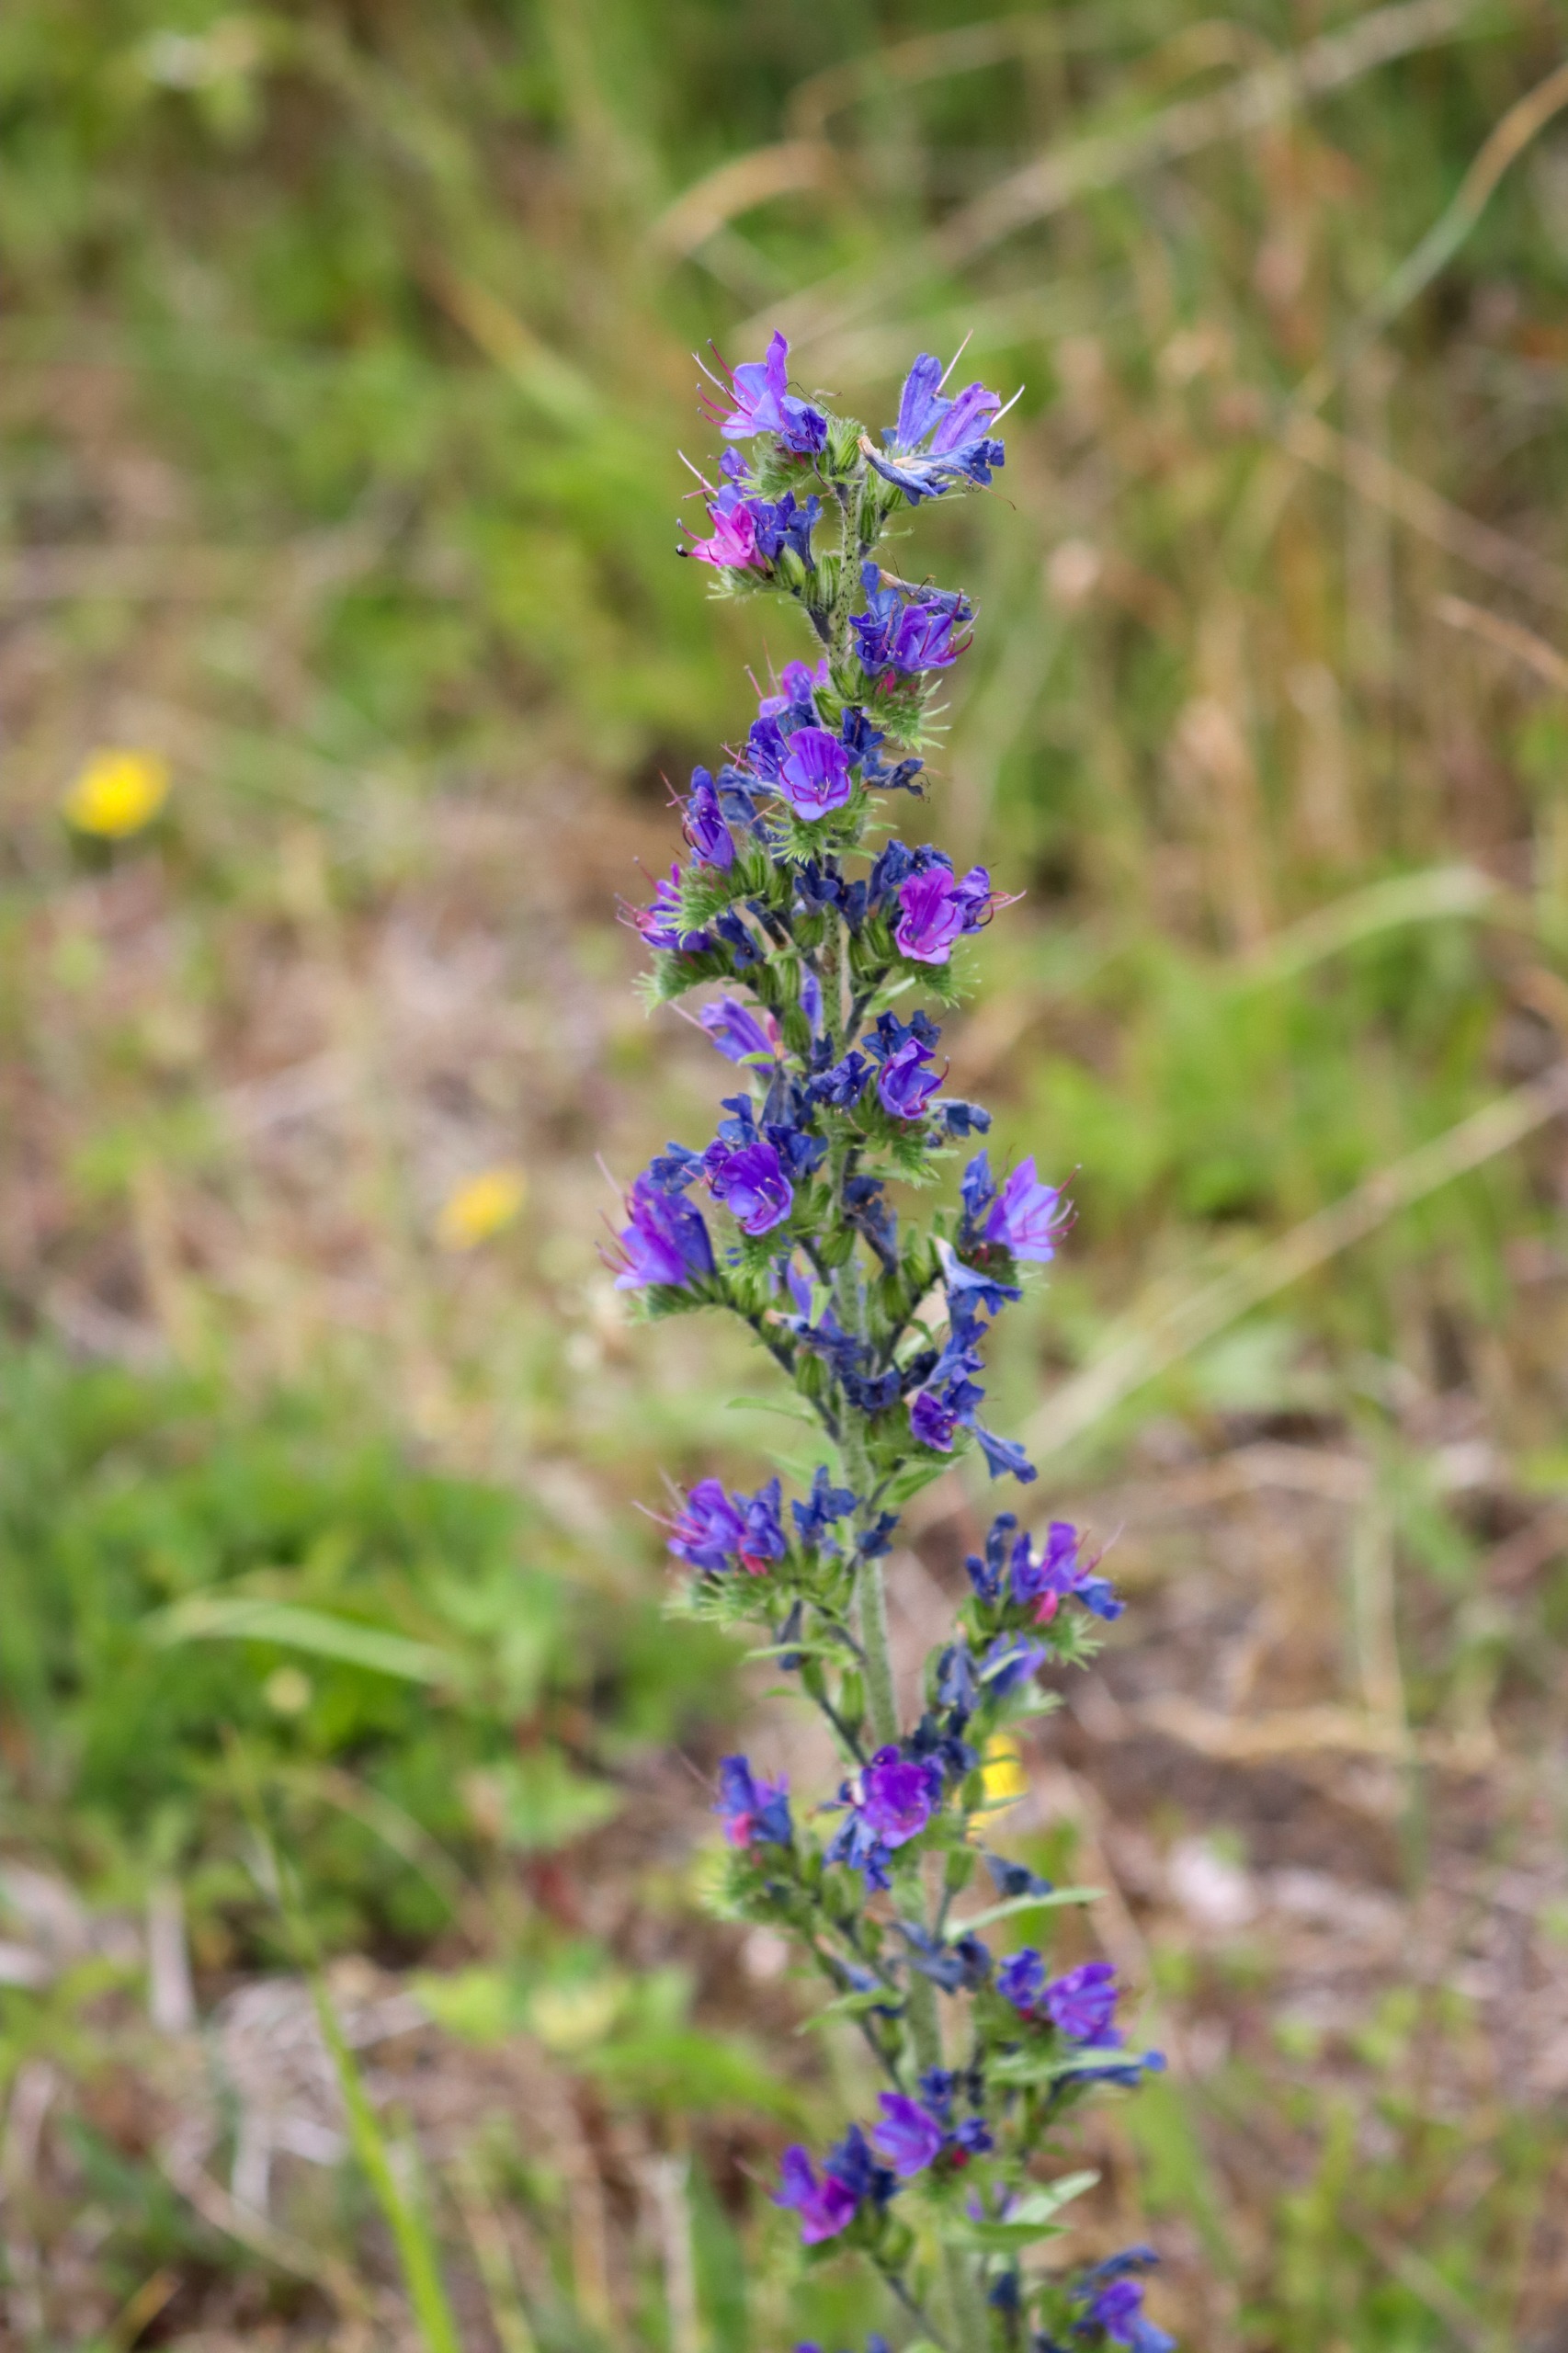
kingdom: Plantae
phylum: Tracheophyta
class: Magnoliopsida
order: Boraginales
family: Boraginaceae
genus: Echium
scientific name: Echium vulgare
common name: Slangehoved
